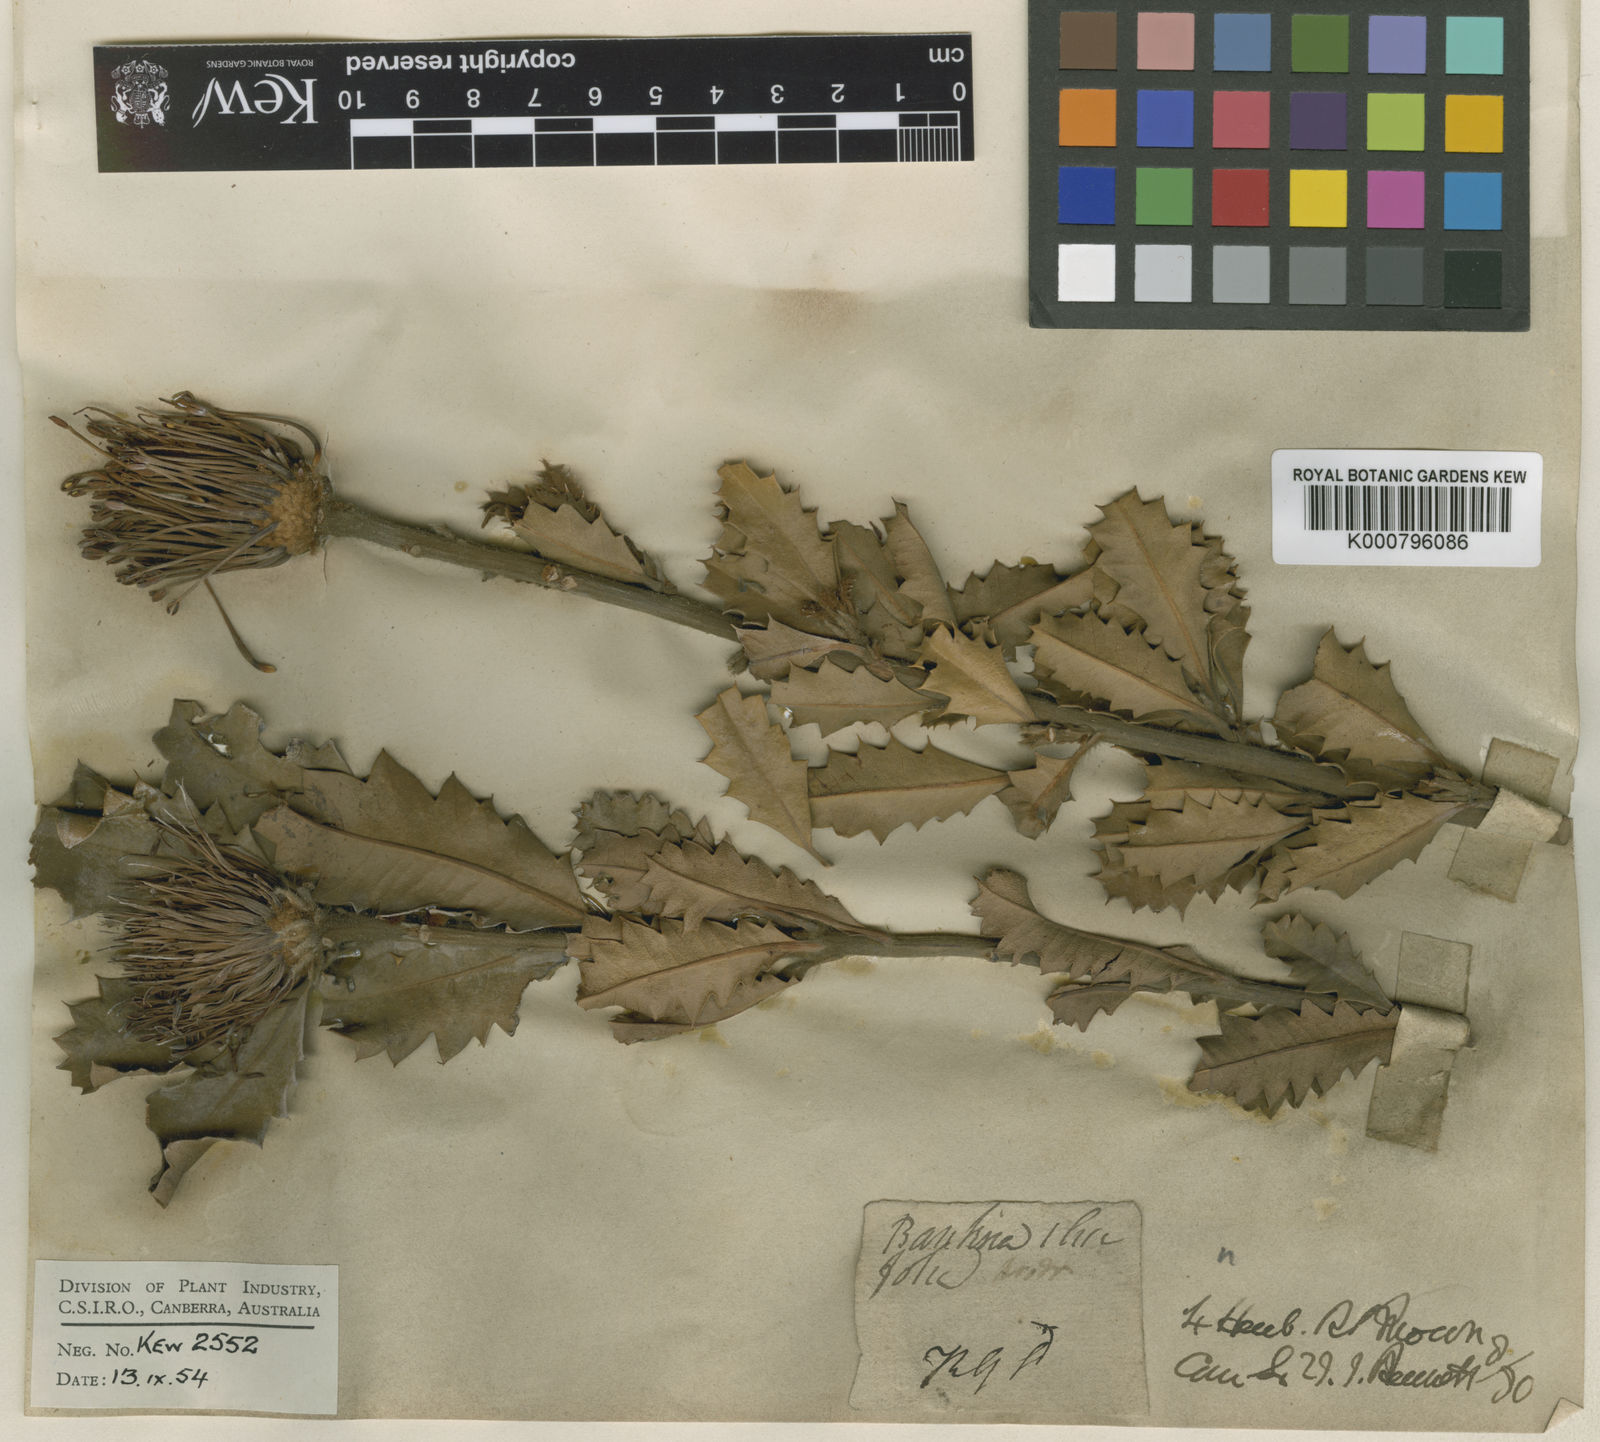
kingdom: Plantae
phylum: Tracheophyta
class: Magnoliopsida
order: Proteales
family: Proteaceae
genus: Banksia
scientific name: Banksia ilicifolia
